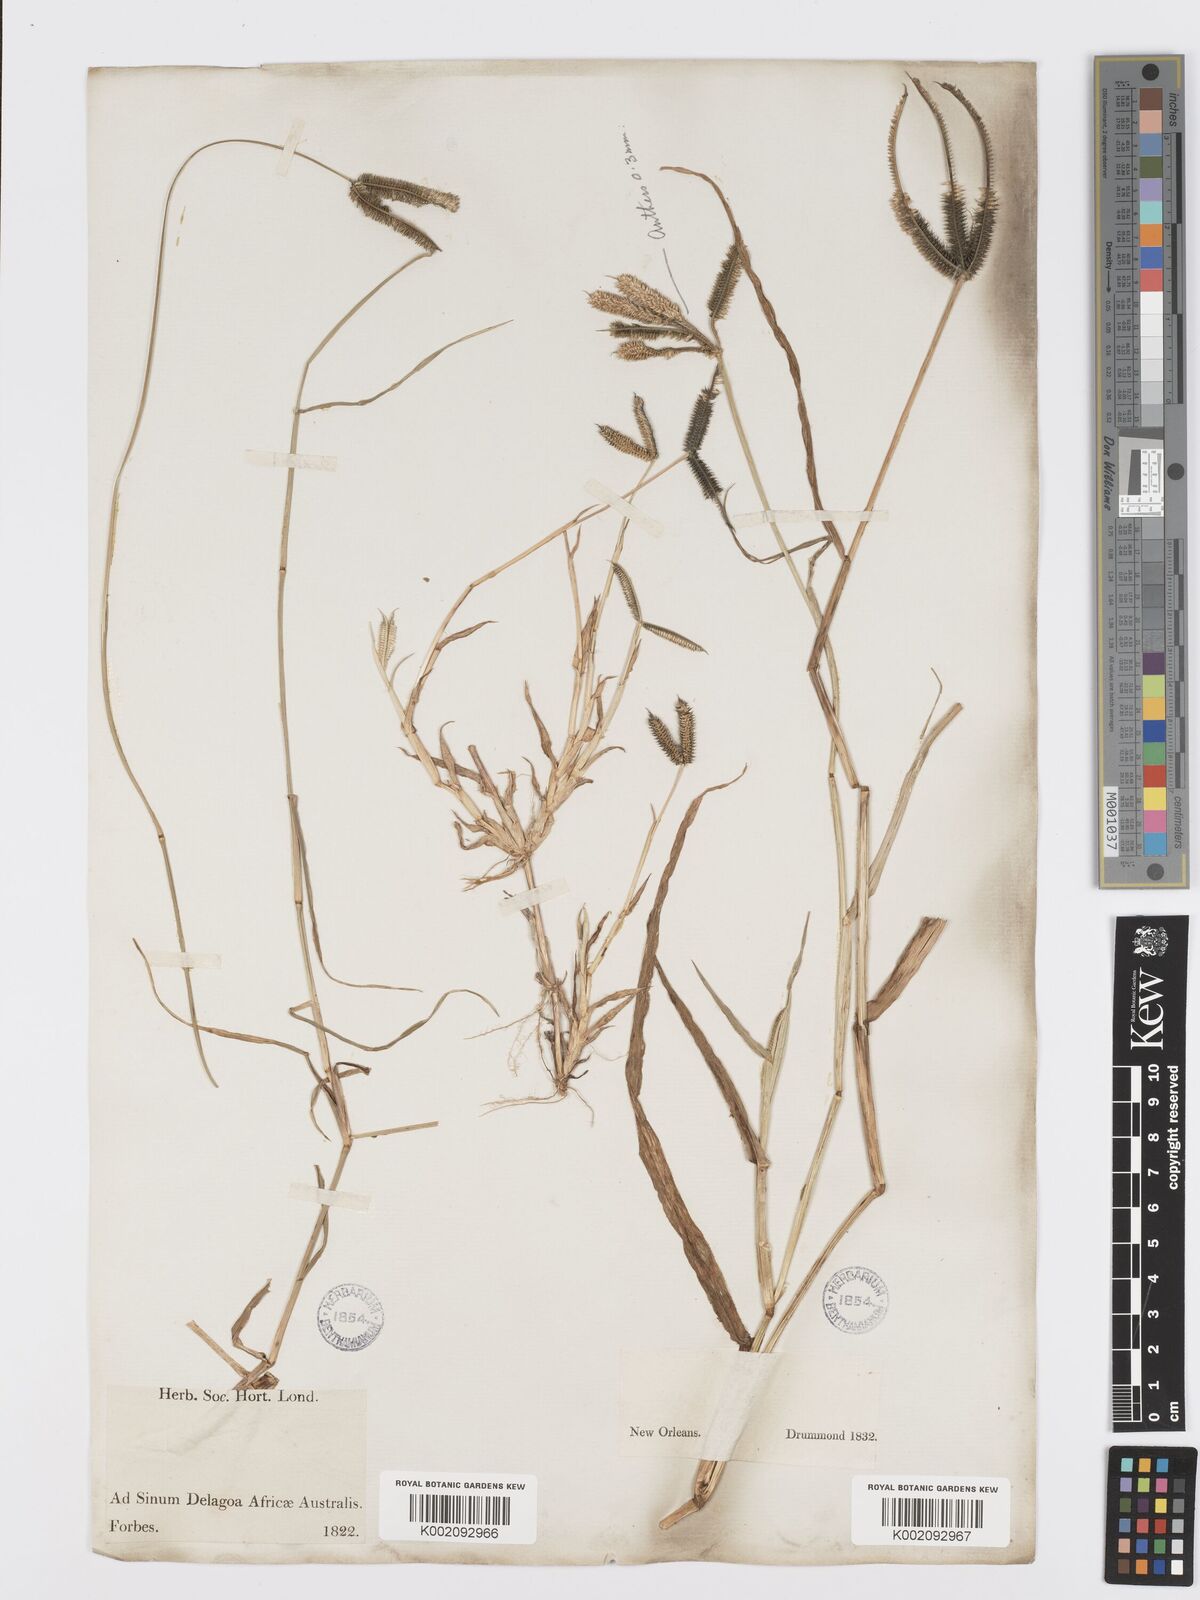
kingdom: Plantae
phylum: Tracheophyta
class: Liliopsida
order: Poales
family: Poaceae
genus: Dactyloctenium
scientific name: Dactyloctenium aegyptium
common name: Egyptian grass
